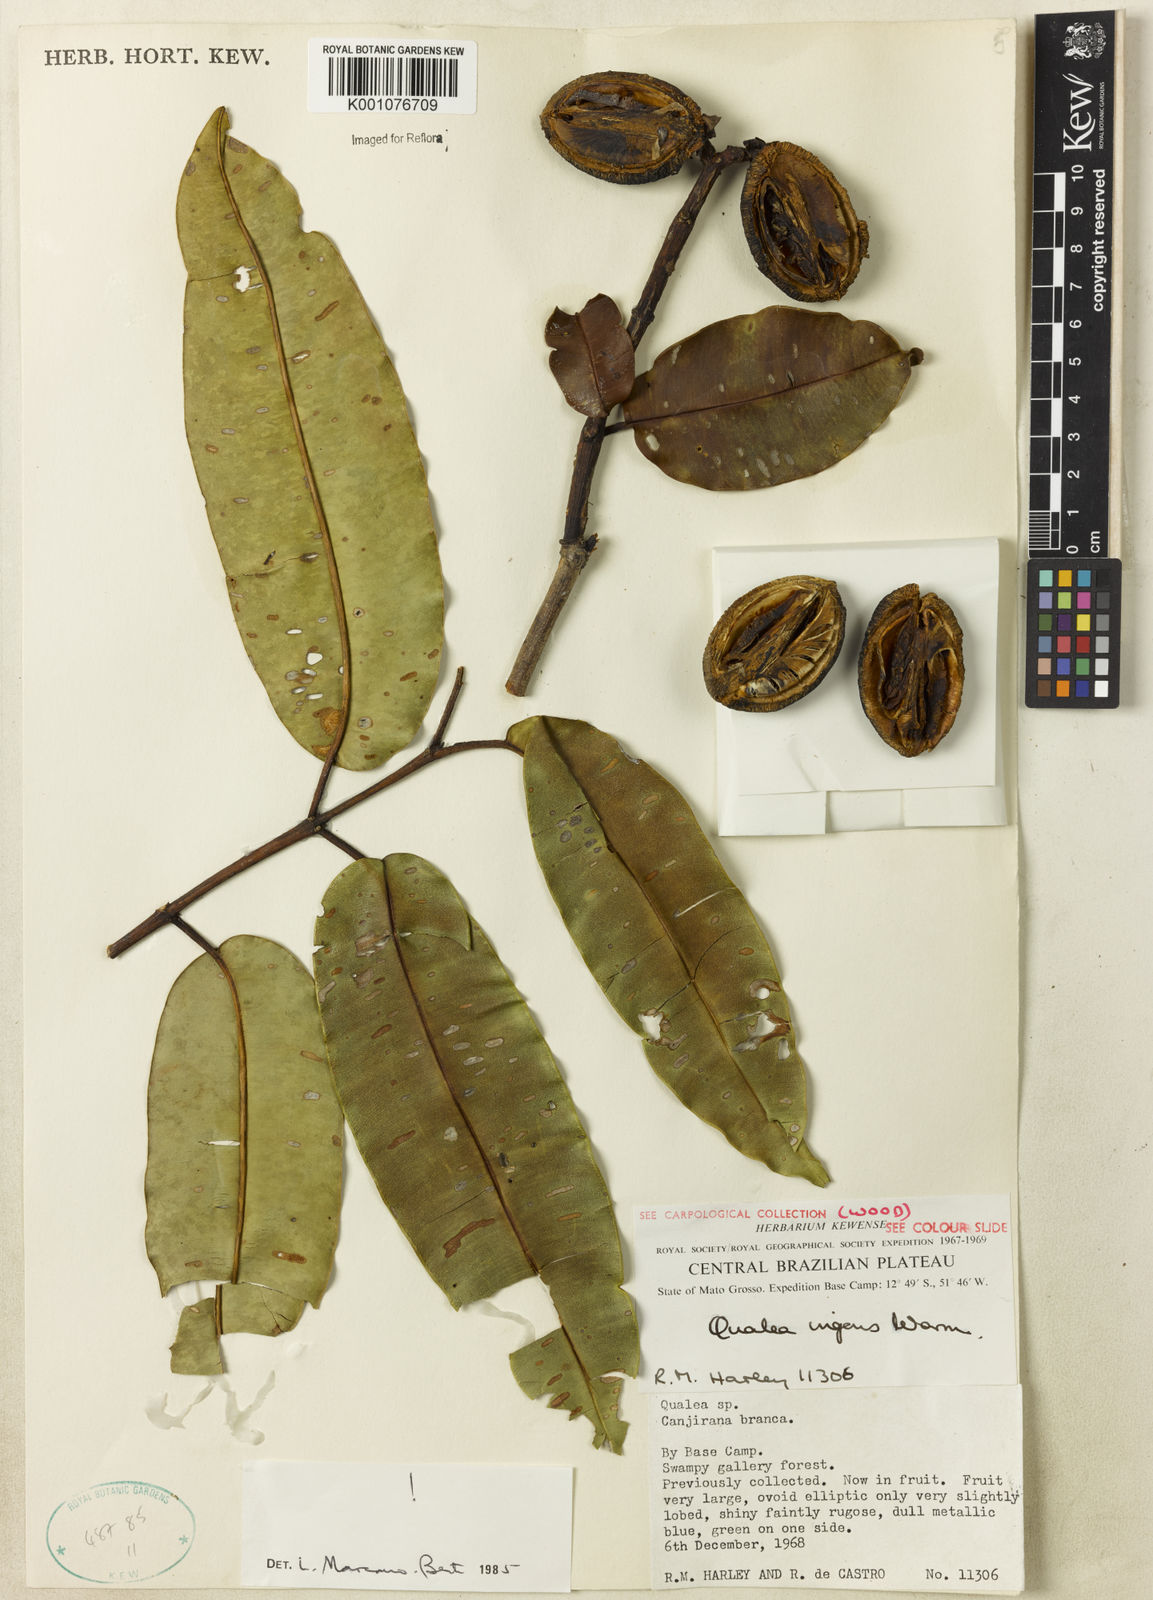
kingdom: Plantae
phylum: Tracheophyta
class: Magnoliopsida
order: Myrtales
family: Vochysiaceae
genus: Qualea
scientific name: Qualea ingens
